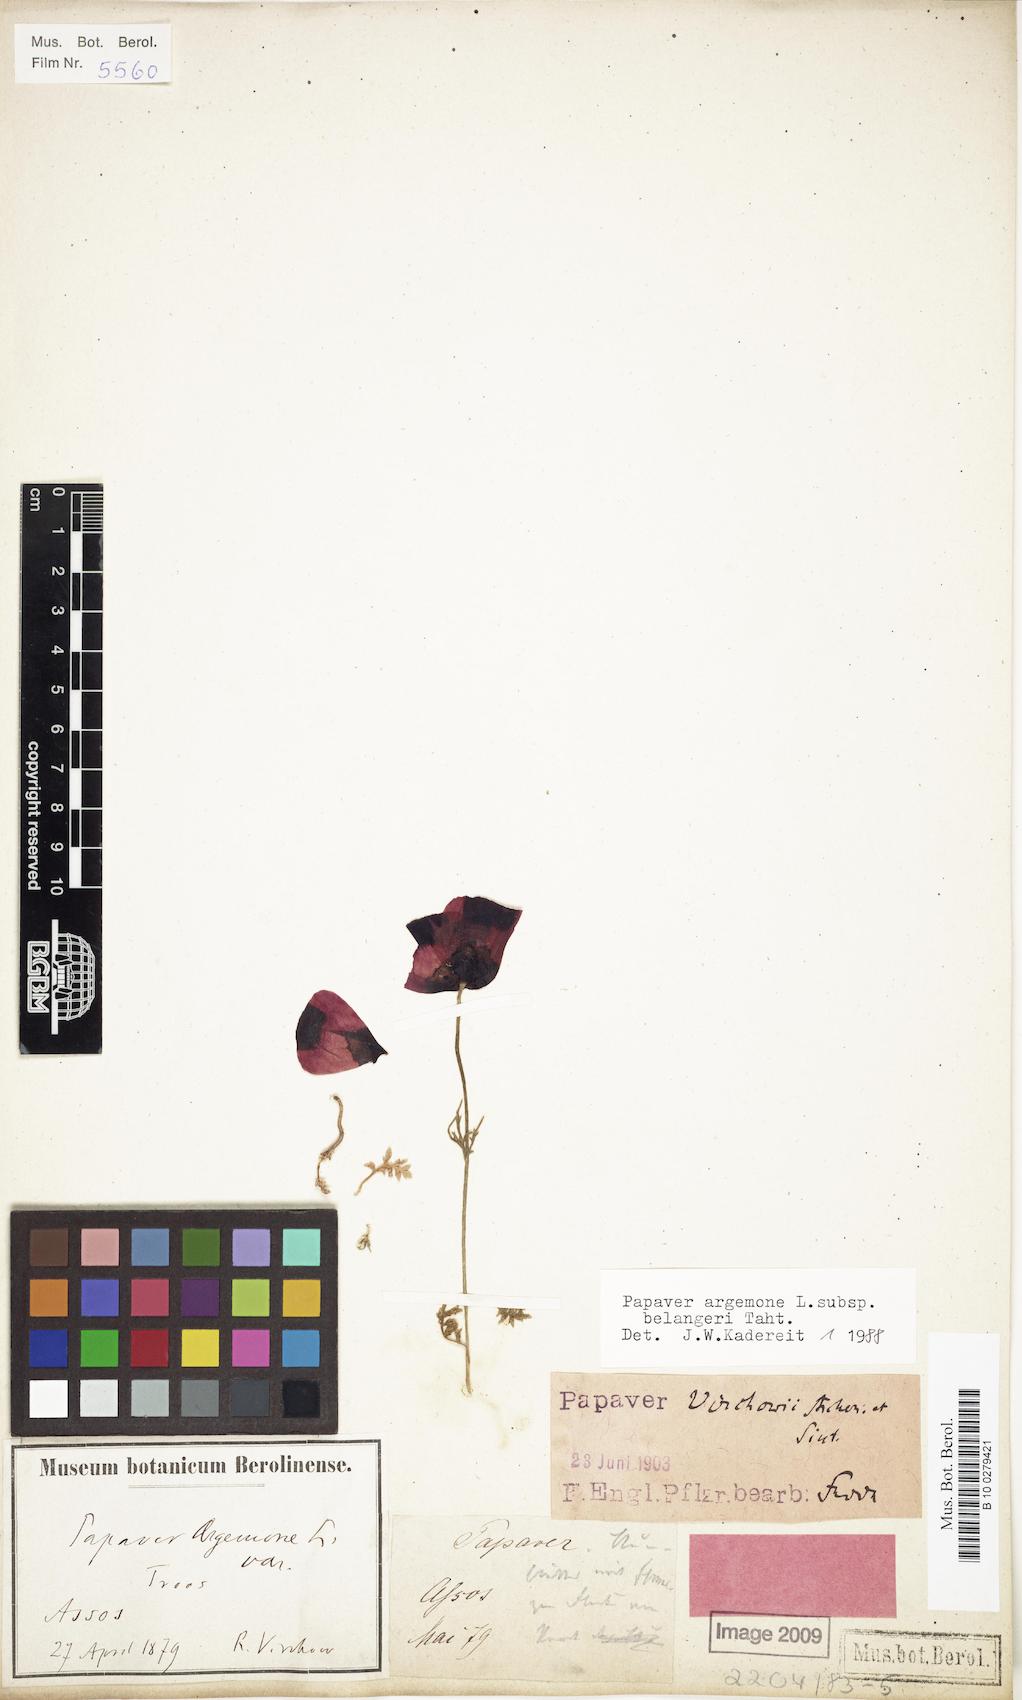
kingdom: Plantae
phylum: Tracheophyta
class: Magnoliopsida
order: Ranunculales
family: Papaveraceae
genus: Roemeria
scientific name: Roemeria minor
